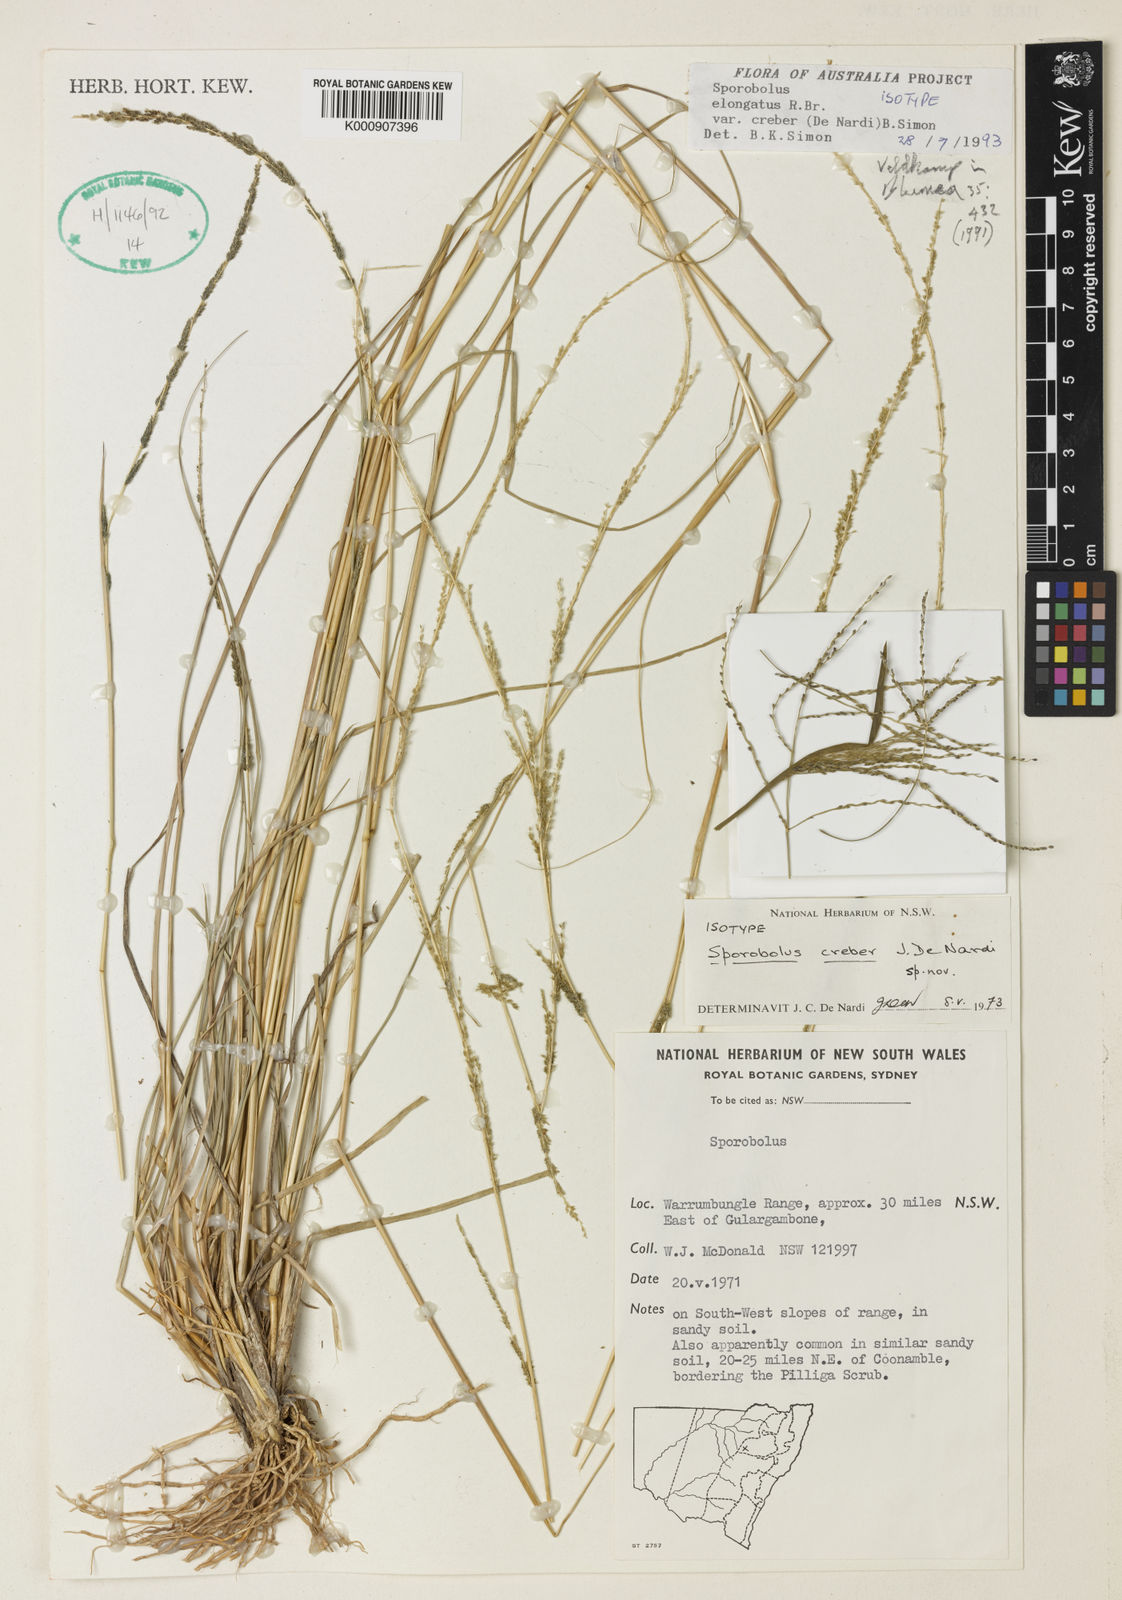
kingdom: Plantae
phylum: Tracheophyta
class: Liliopsida
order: Poales
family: Poaceae
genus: Sporobolus
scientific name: Sporobolus creber
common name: Slender dropseed
